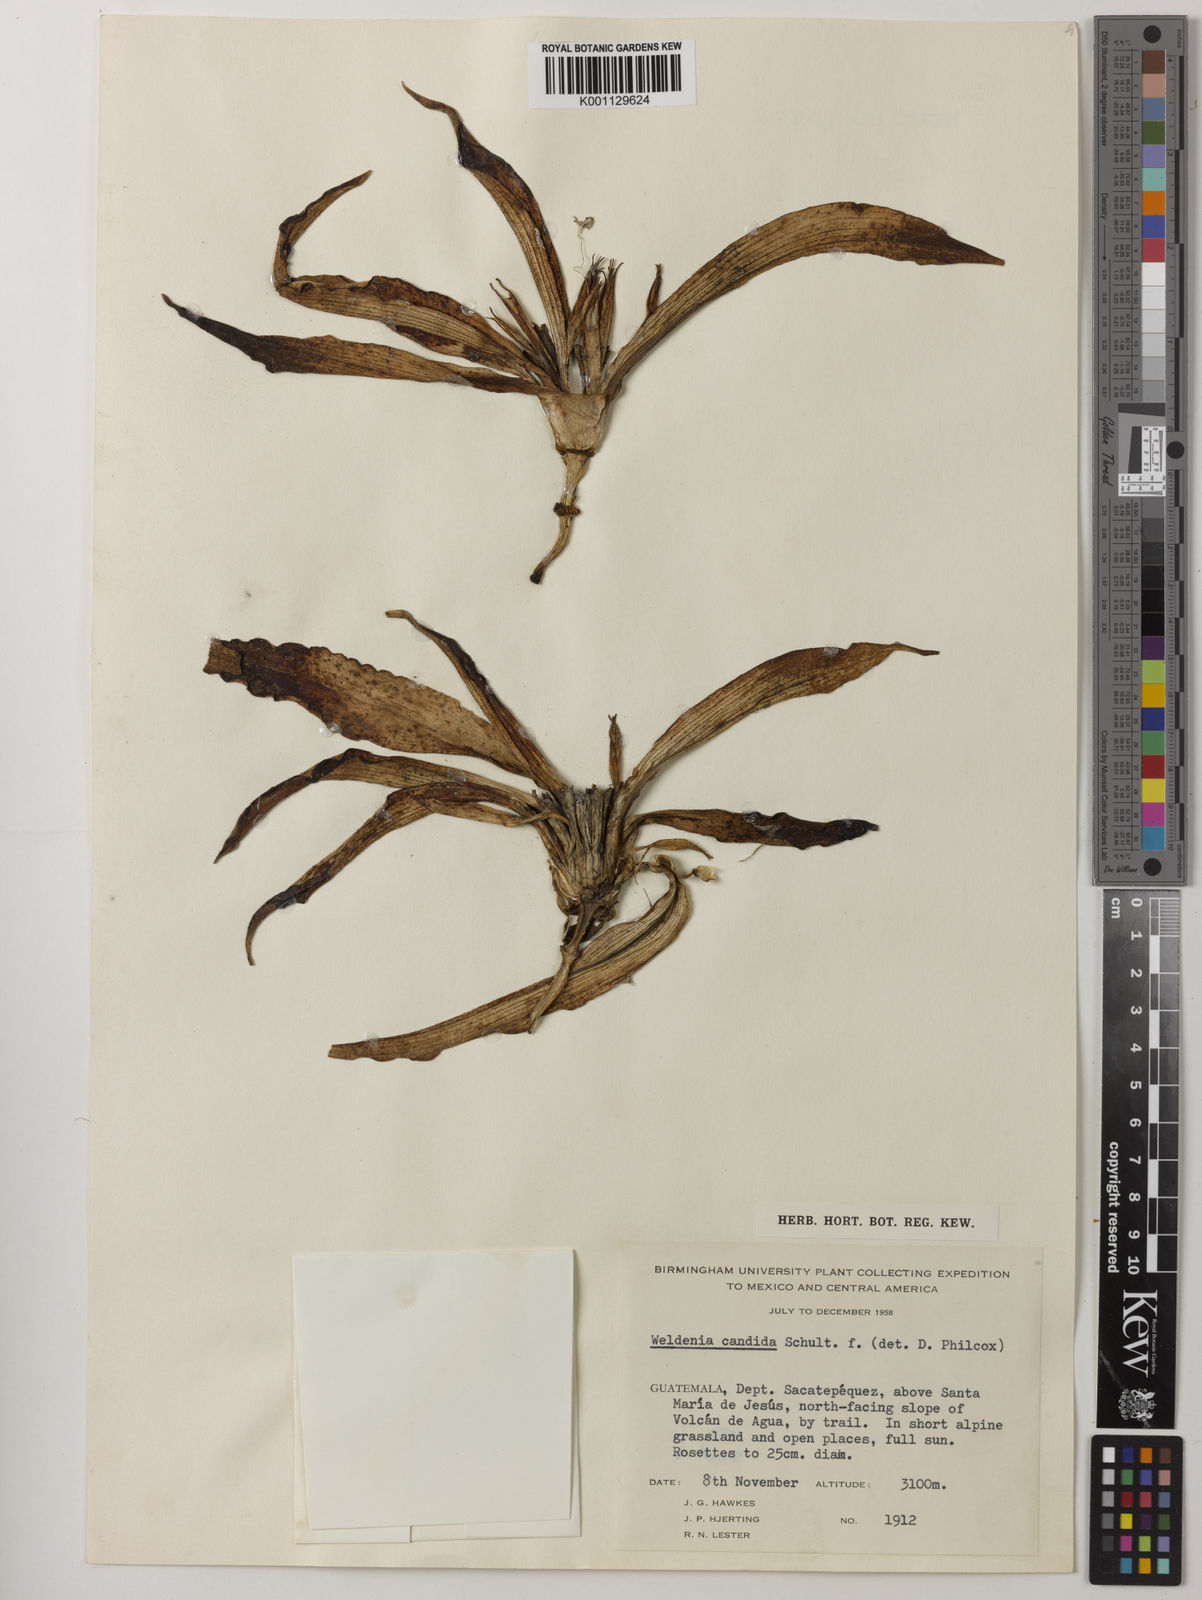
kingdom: Plantae
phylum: Tracheophyta
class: Liliopsida
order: Commelinales
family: Commelinaceae
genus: Weldenia
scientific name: Weldenia candida
